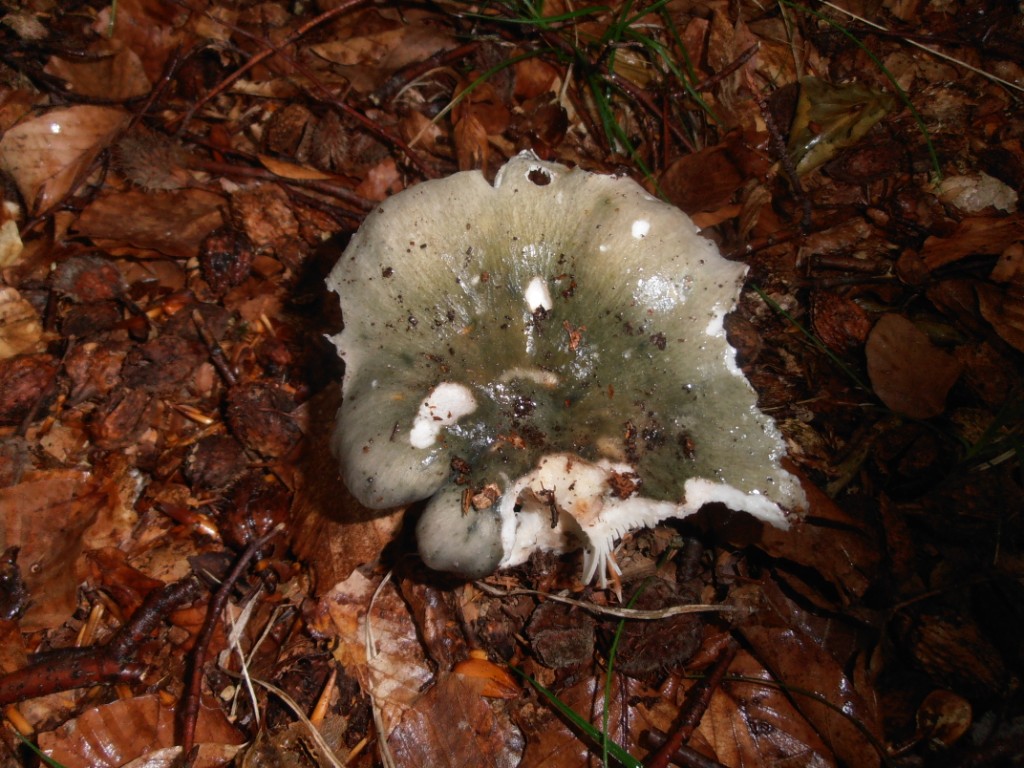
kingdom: Fungi
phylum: Basidiomycota
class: Agaricomycetes
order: Russulales
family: Russulaceae
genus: Russula
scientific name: Russula cyanoxantha
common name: broget skørhat
